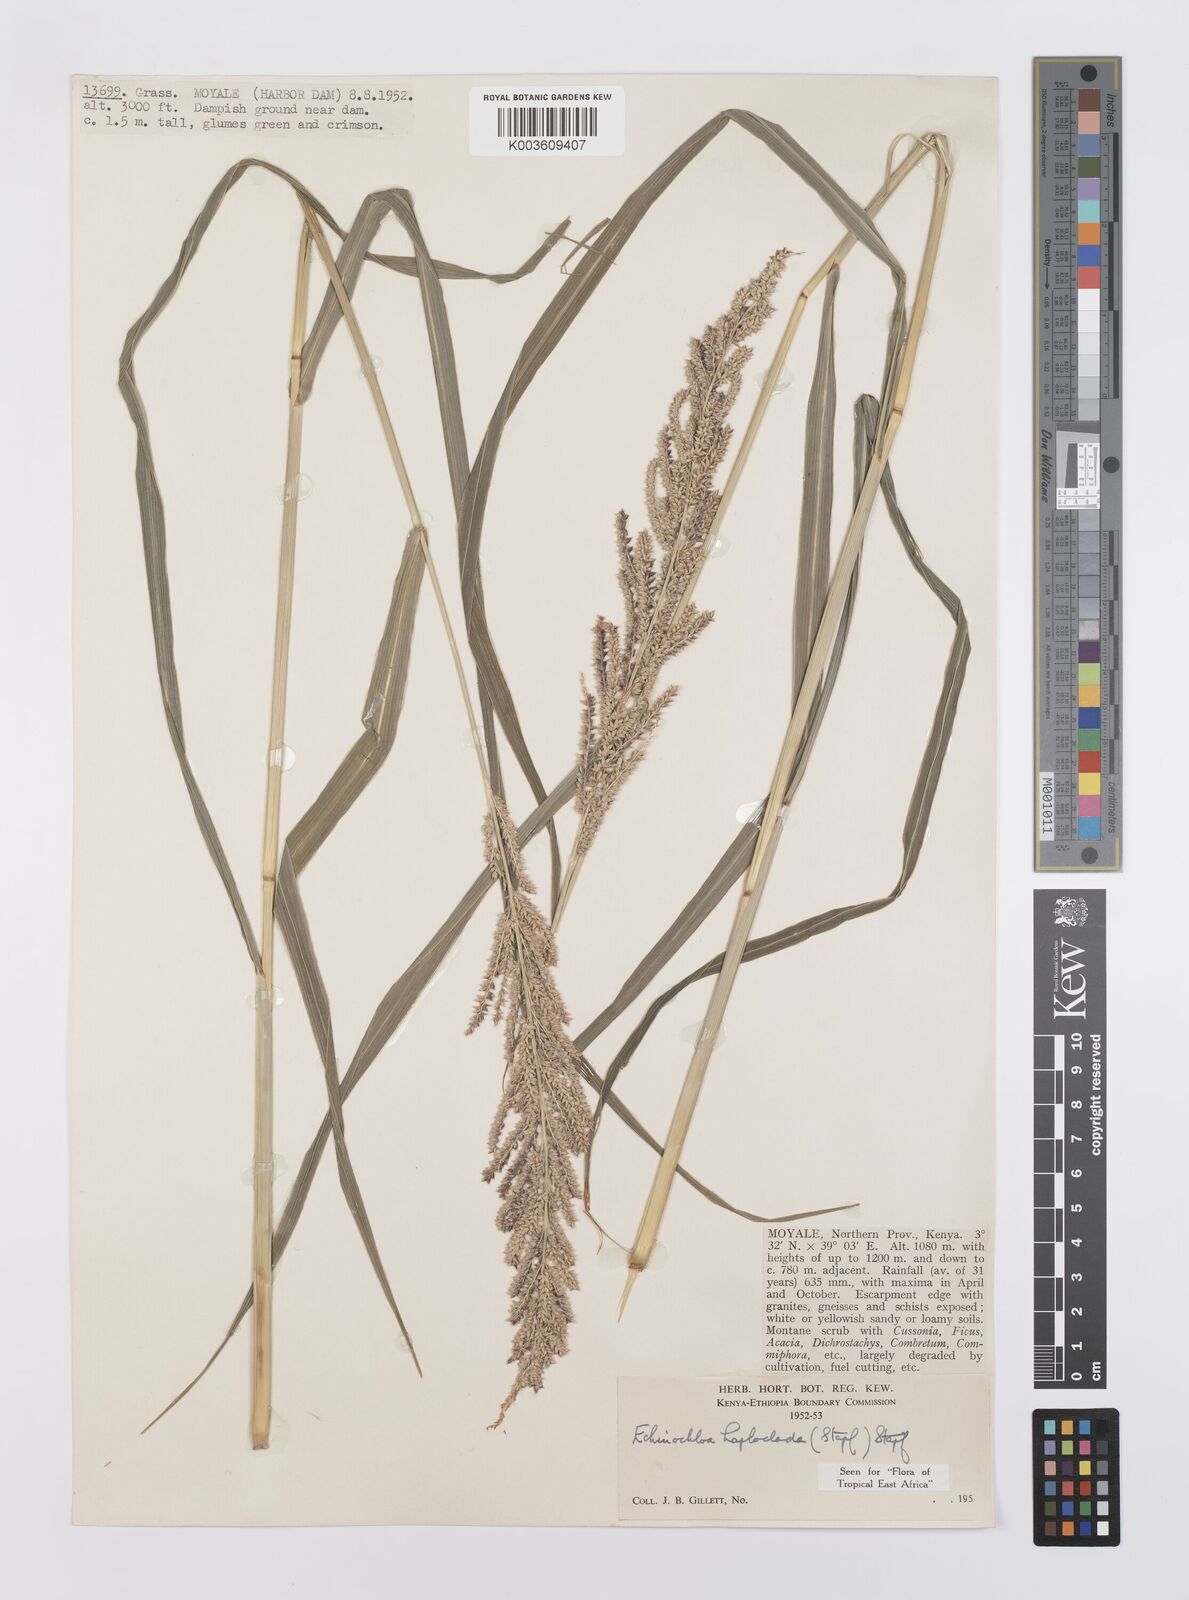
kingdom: Plantae
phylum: Tracheophyta
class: Liliopsida
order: Poales
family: Poaceae
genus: Echinochloa
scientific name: Echinochloa haploclada
